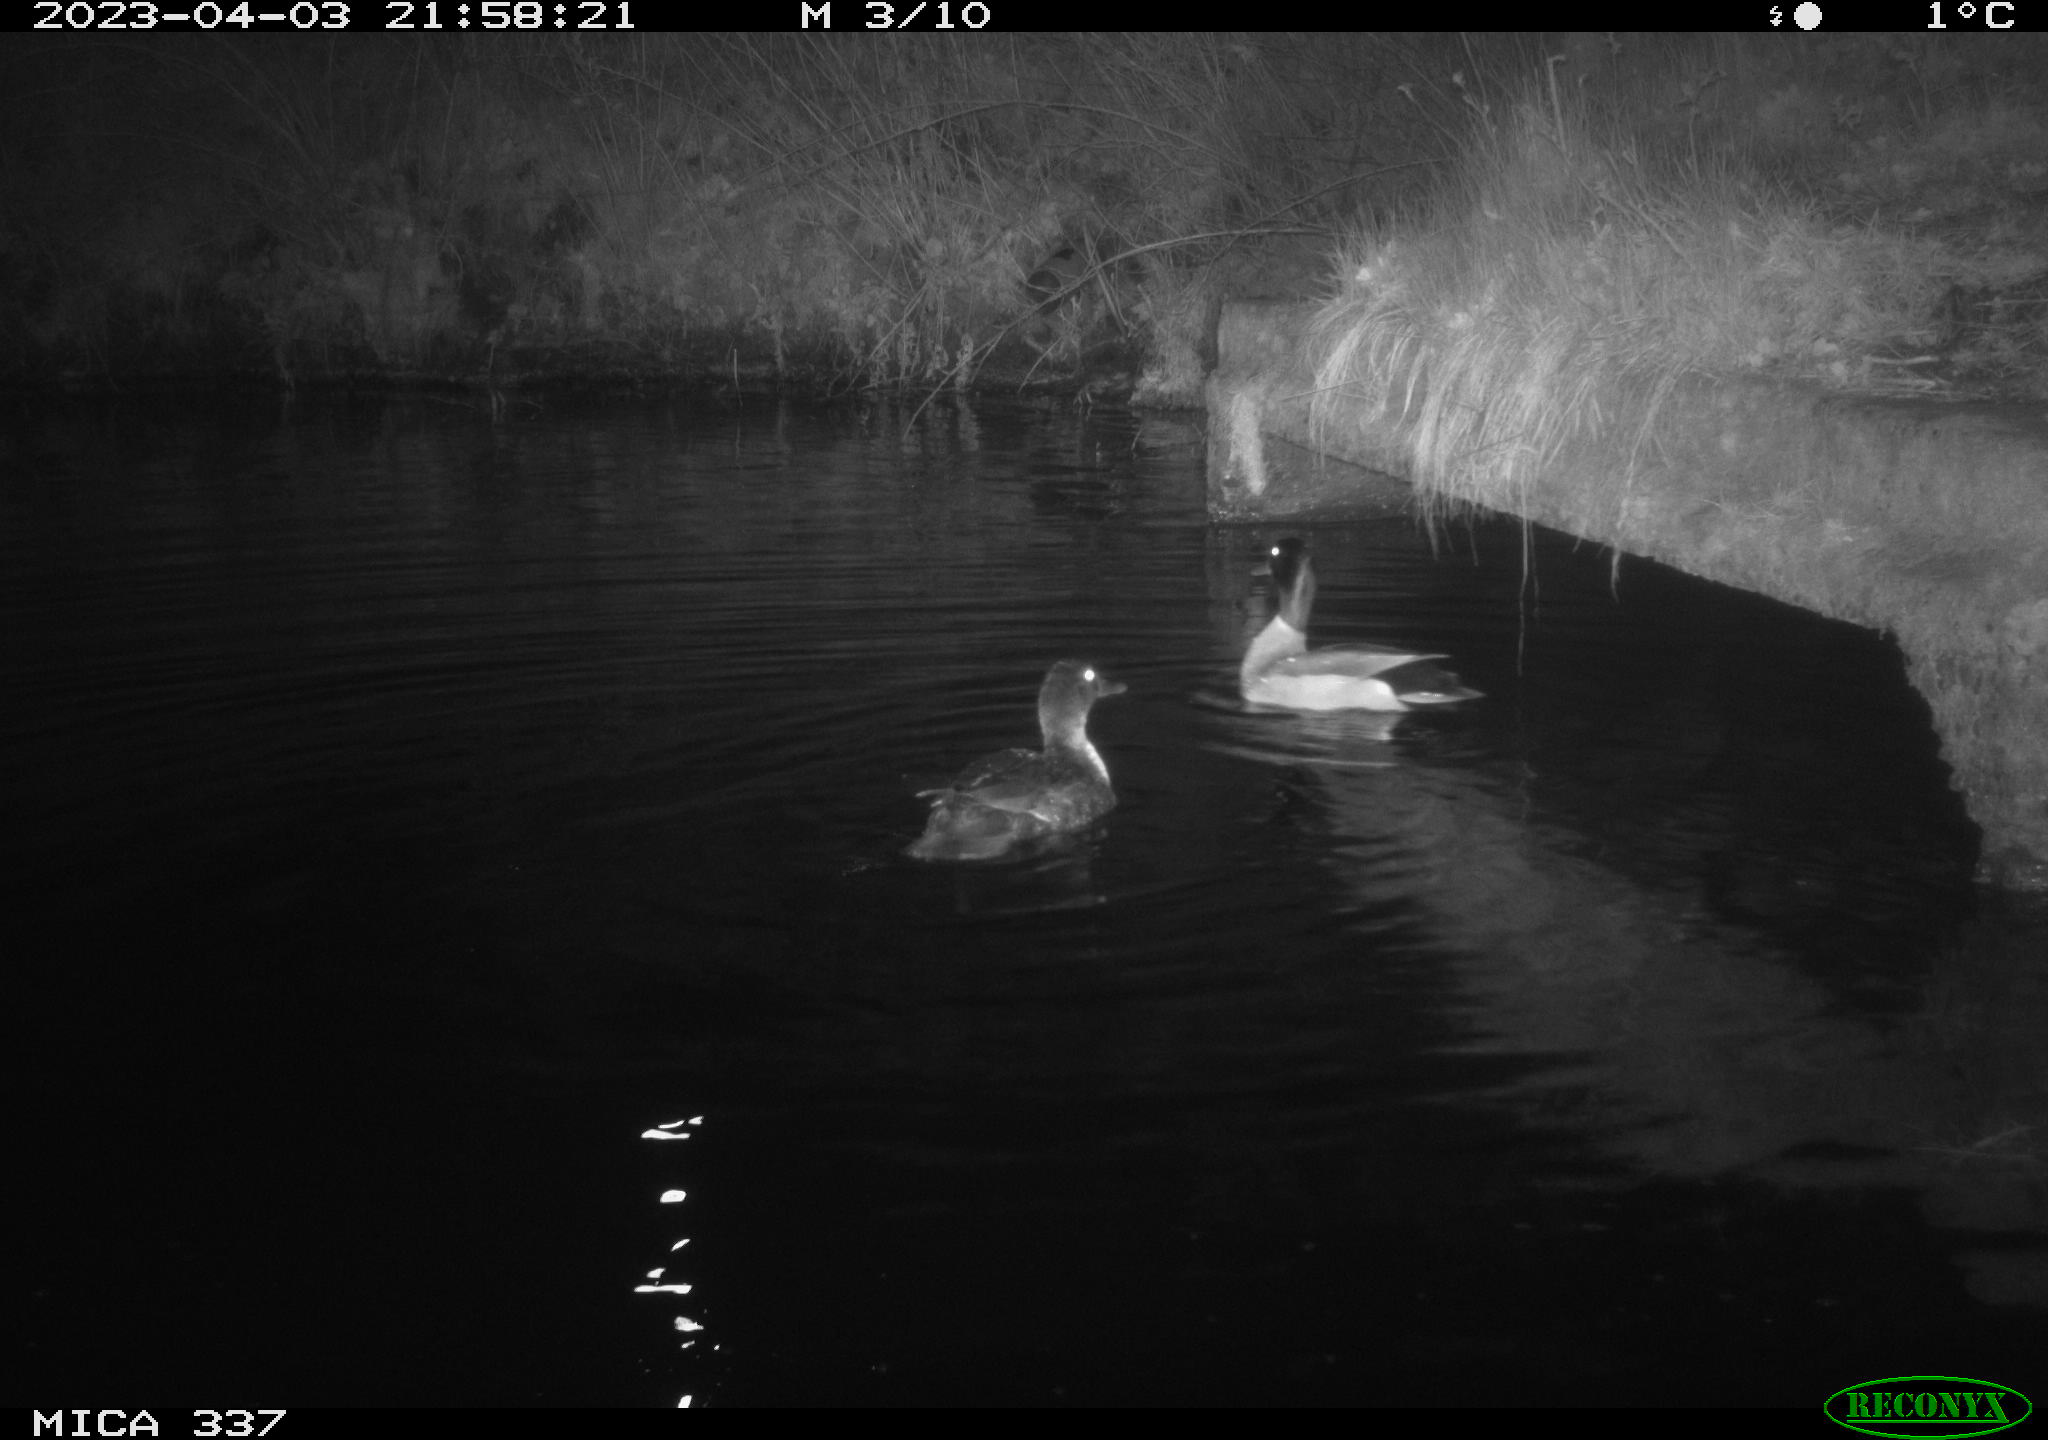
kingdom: Animalia
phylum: Chordata
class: Aves
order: Anseriformes
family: Anatidae
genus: Anas
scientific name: Anas platyrhynchos
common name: Mallard
